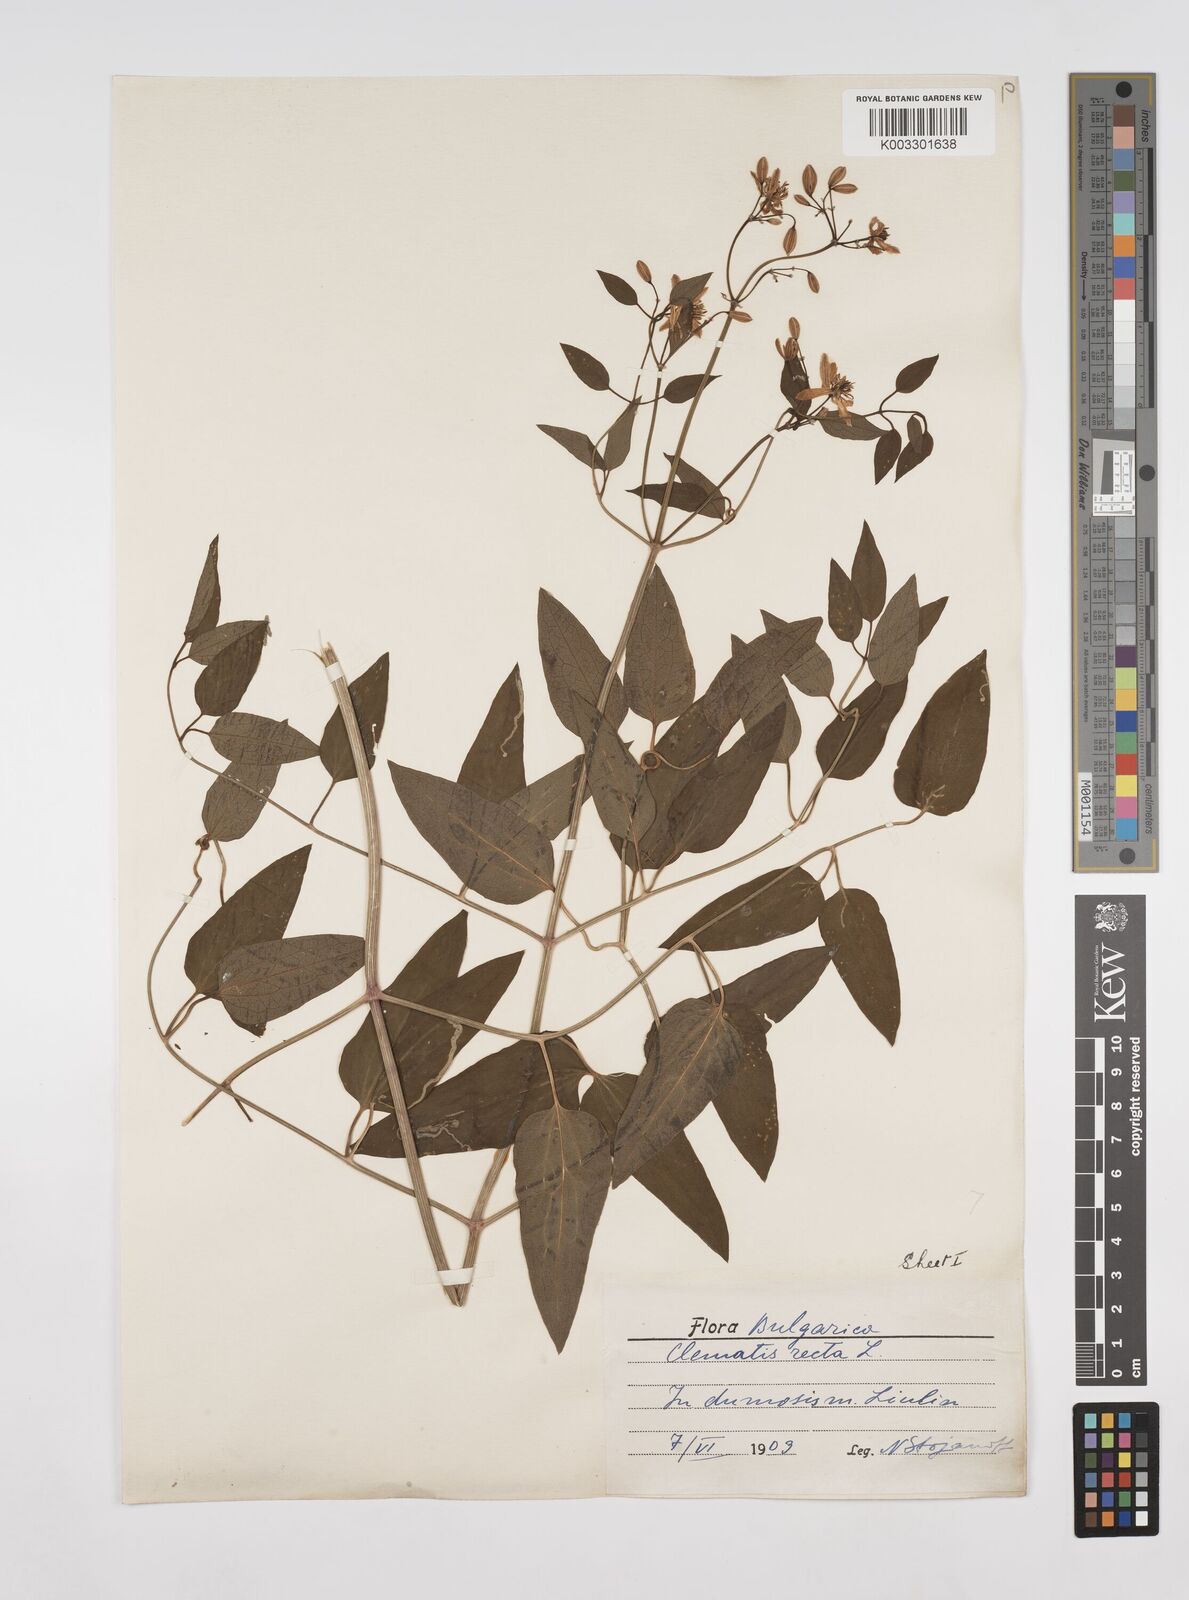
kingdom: Plantae
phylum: Tracheophyta
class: Magnoliopsida
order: Ranunculales
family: Ranunculaceae
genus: Clematis
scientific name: Clematis recta
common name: Ground clematis
